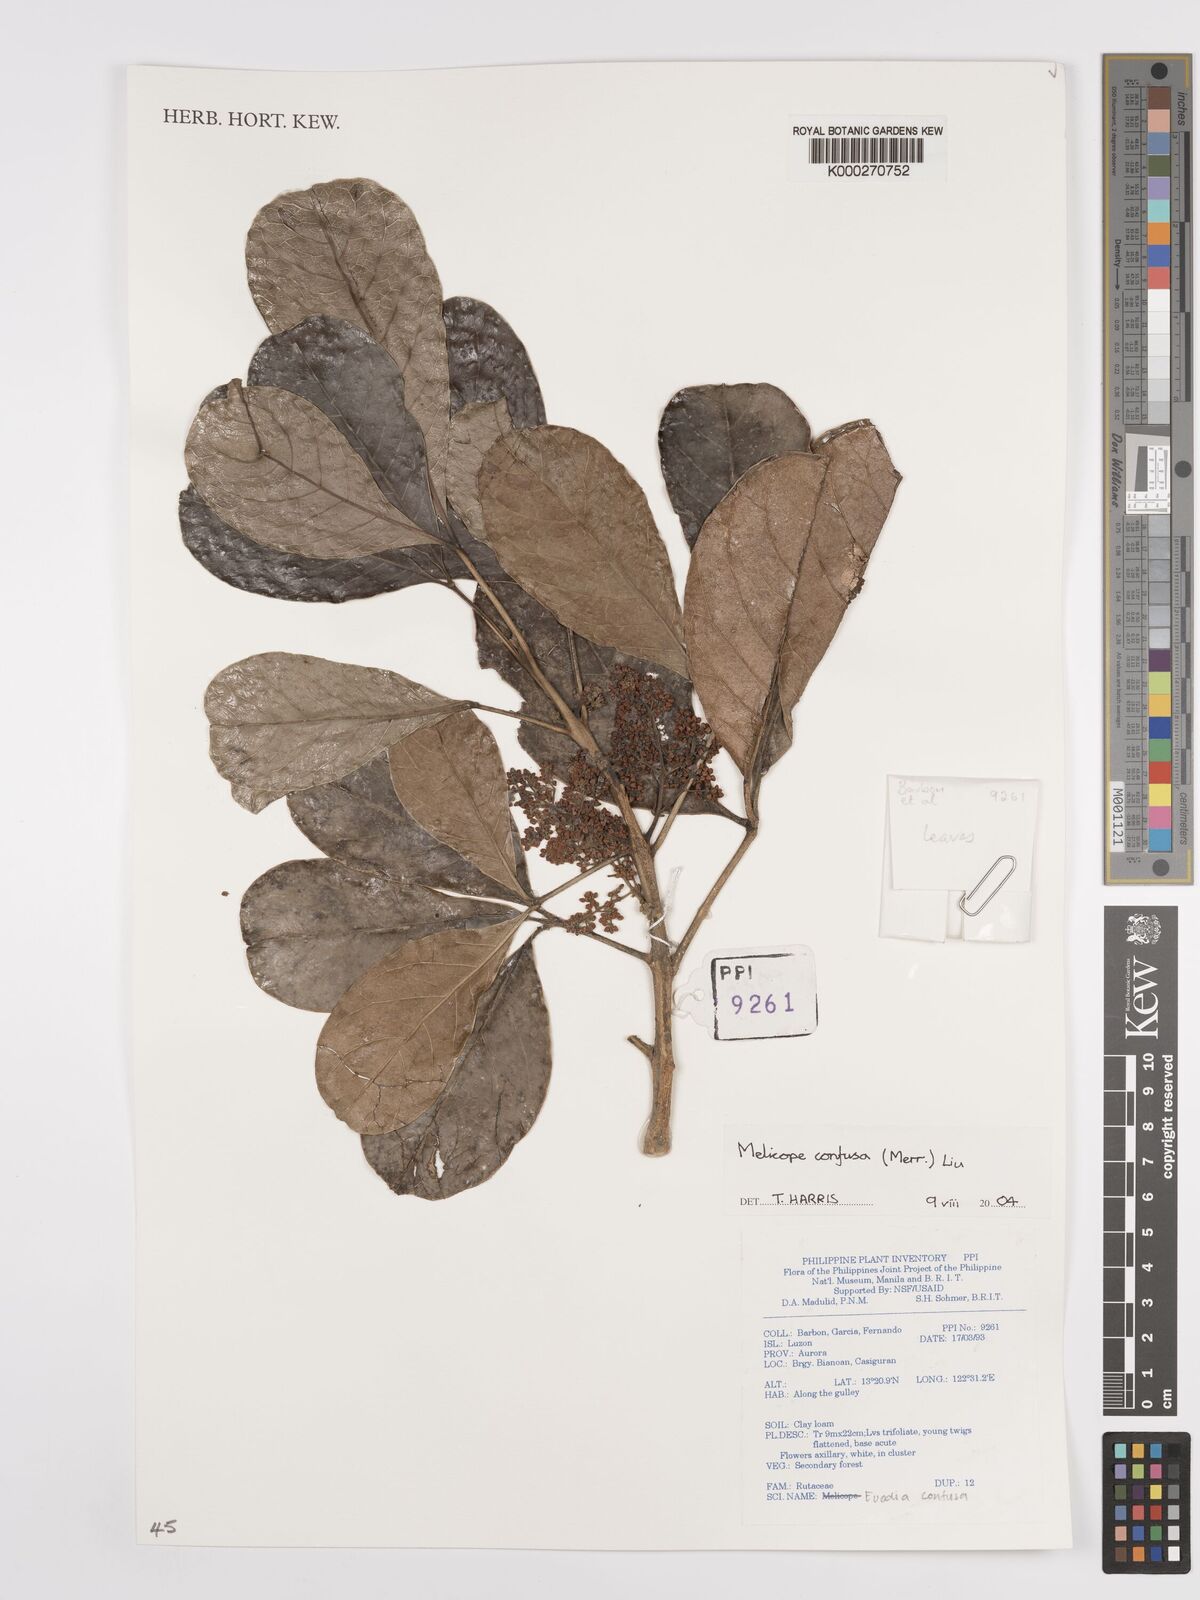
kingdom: Plantae
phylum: Tracheophyta
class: Magnoliopsida
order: Sapindales
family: Rutaceae
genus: Melicope
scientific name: Melicope frutescens
